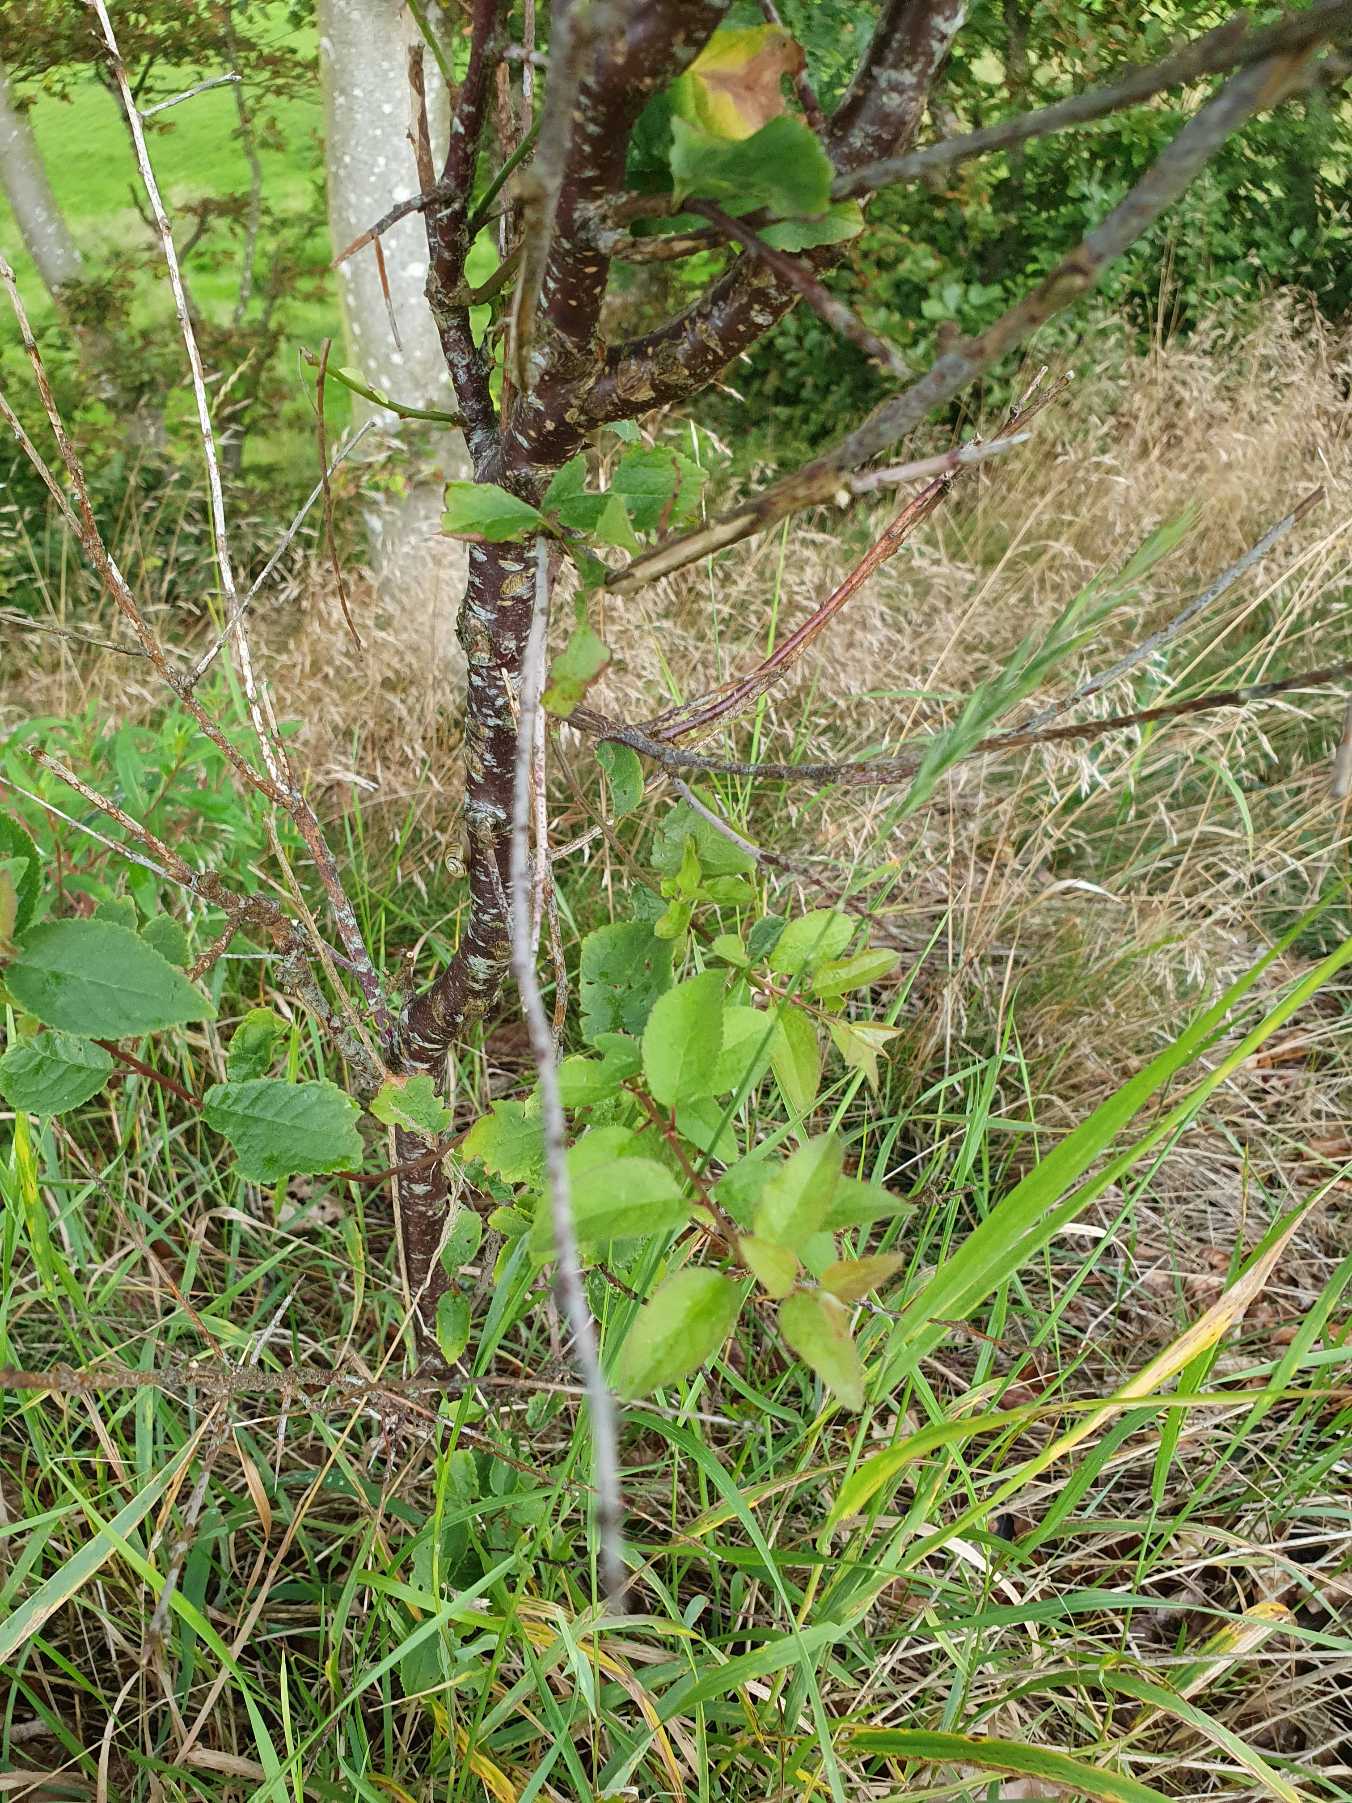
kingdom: Plantae
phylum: Tracheophyta
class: Magnoliopsida
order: Rosales
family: Rosaceae
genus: Prunus
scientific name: Prunus cerasifera
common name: Mirabel
